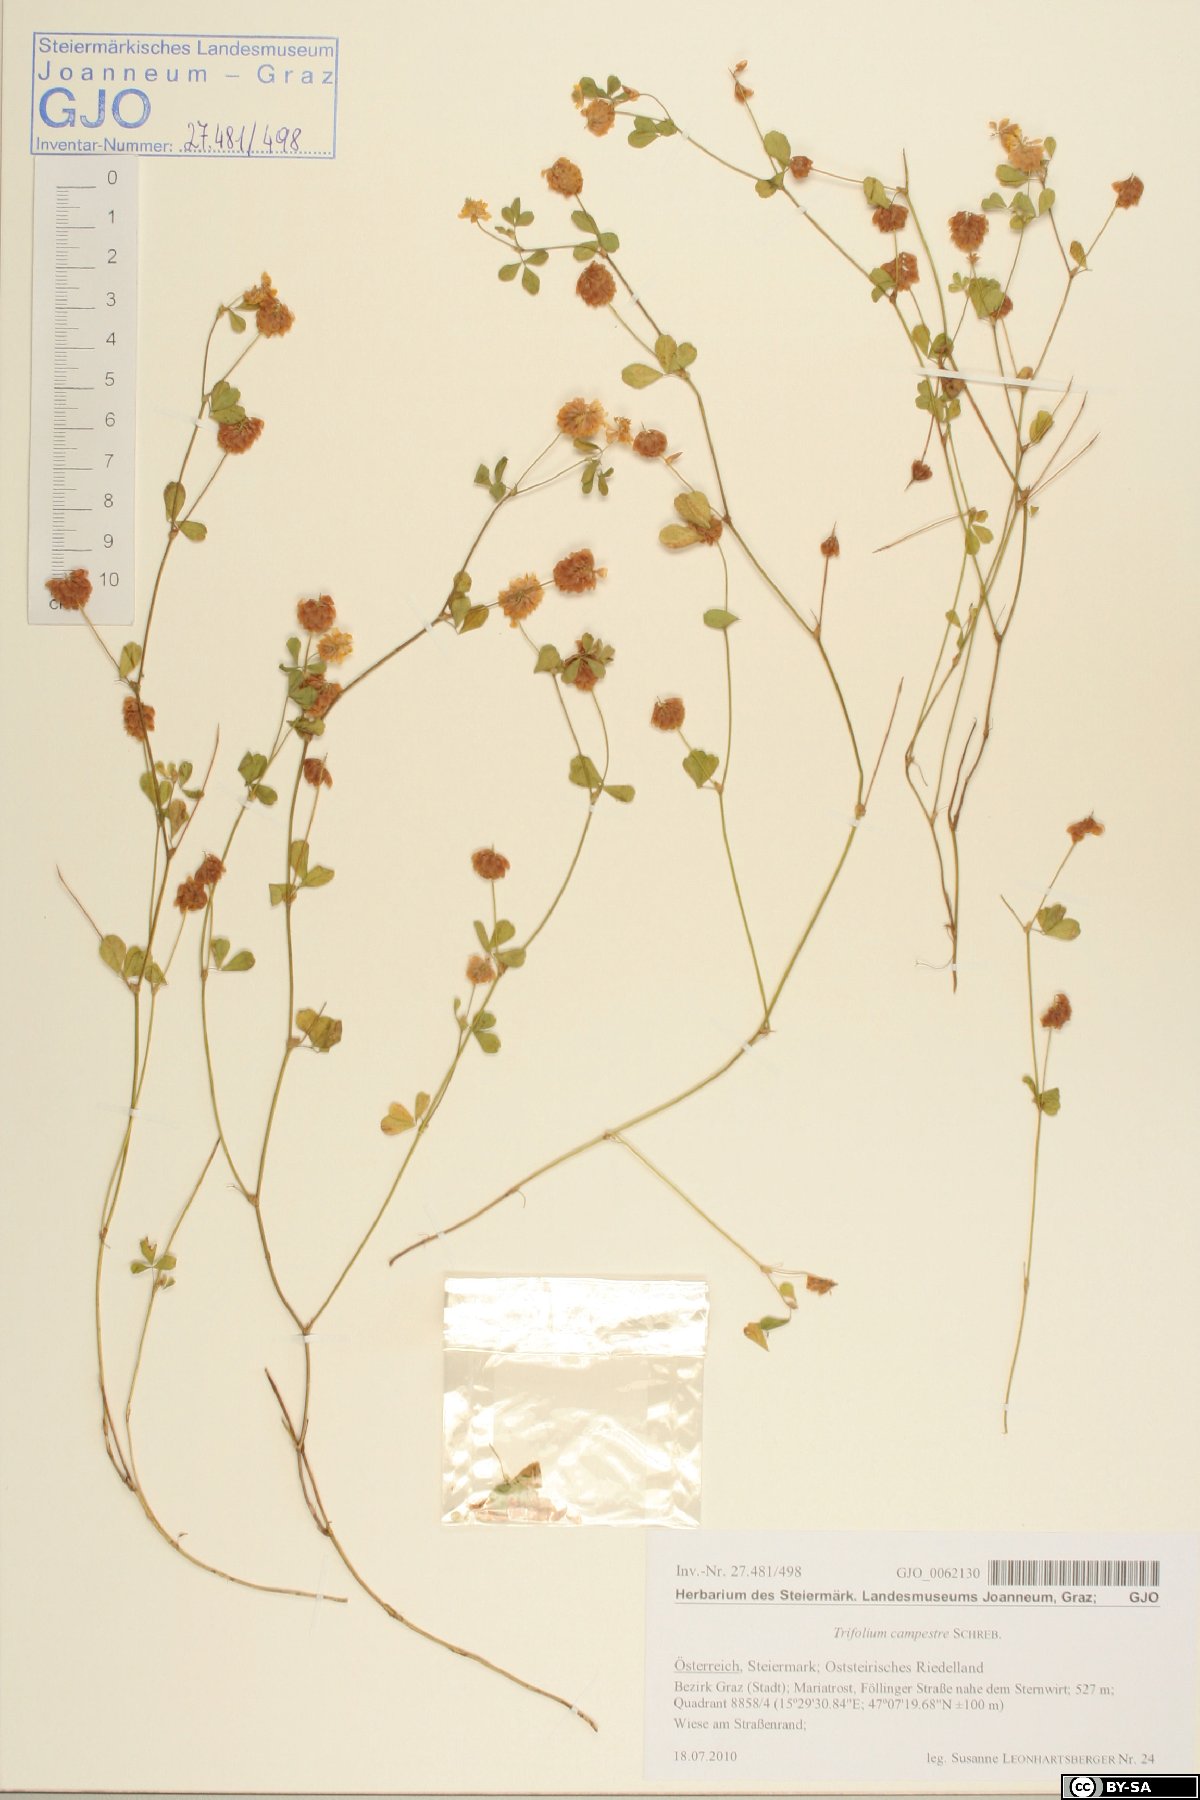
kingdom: Plantae
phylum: Tracheophyta
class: Magnoliopsida
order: Fabales
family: Fabaceae
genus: Trifolium
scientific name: Trifolium campestre
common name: Field clover
